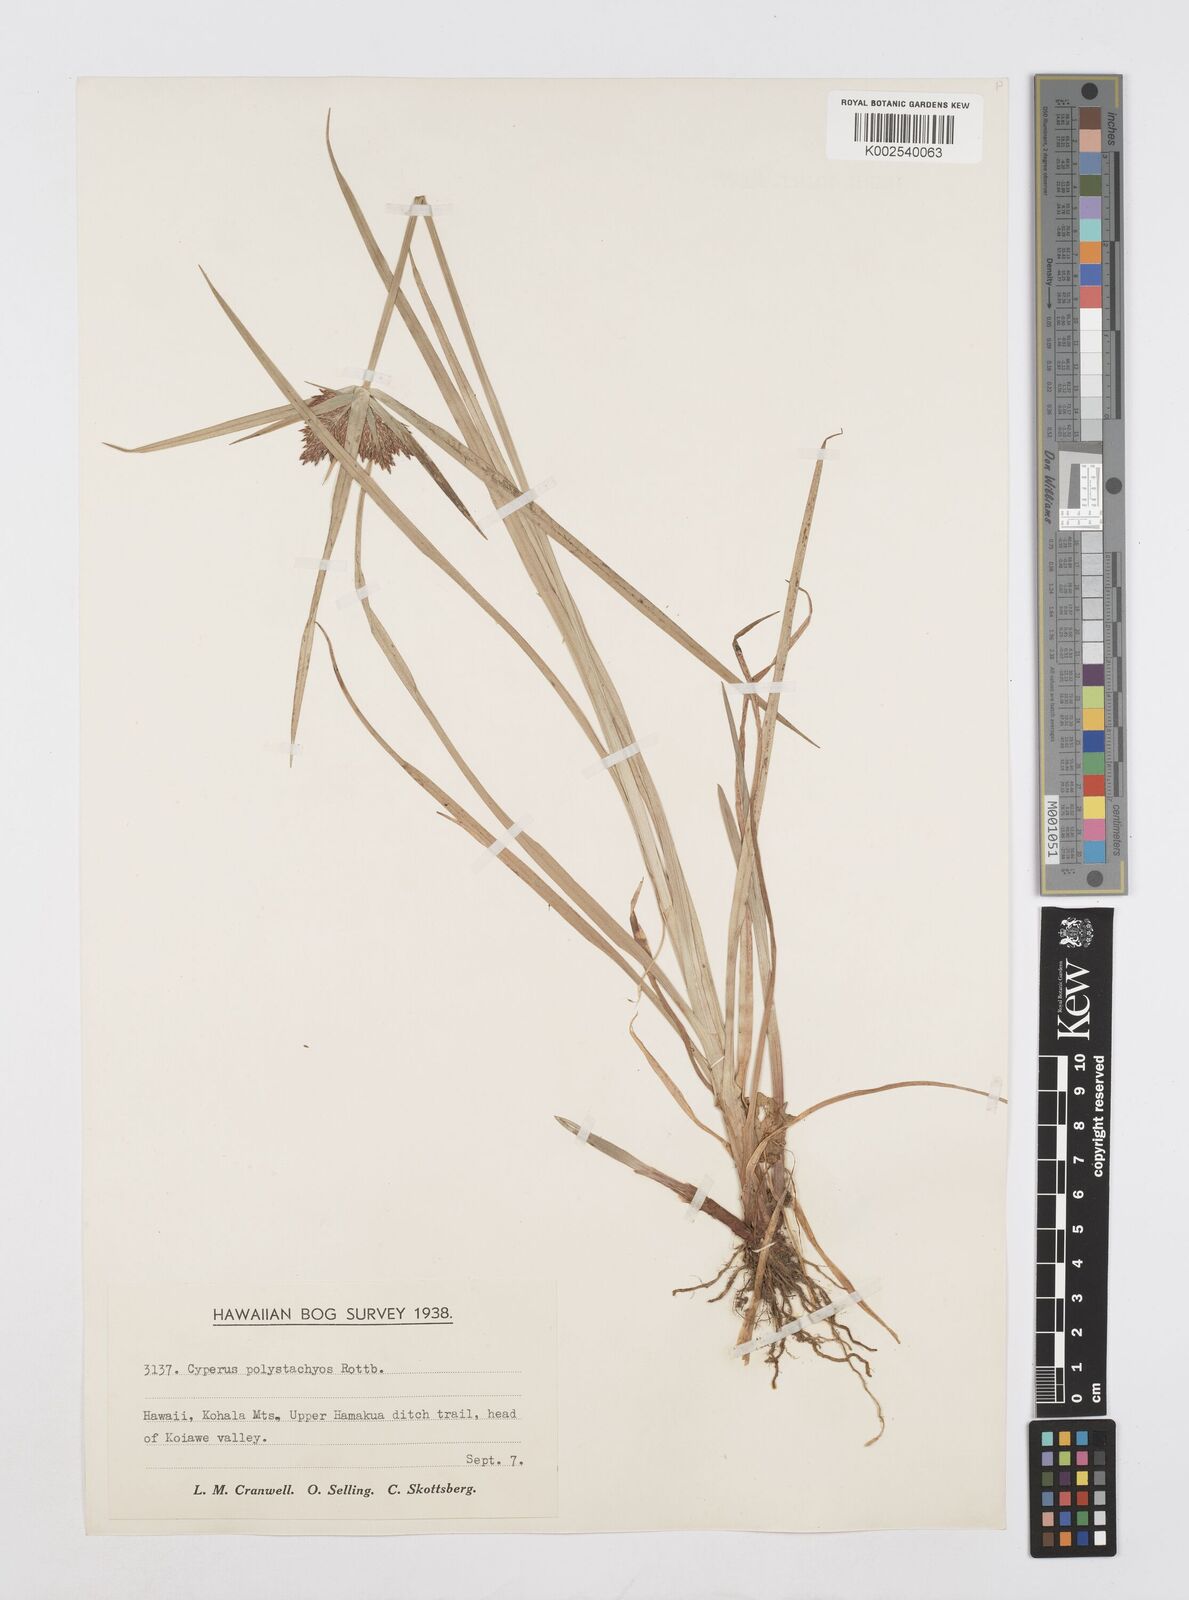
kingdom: Plantae
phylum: Tracheophyta
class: Liliopsida
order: Poales
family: Cyperaceae
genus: Cyperus
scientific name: Cyperus polystachyos
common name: Bunchy flat sedge
